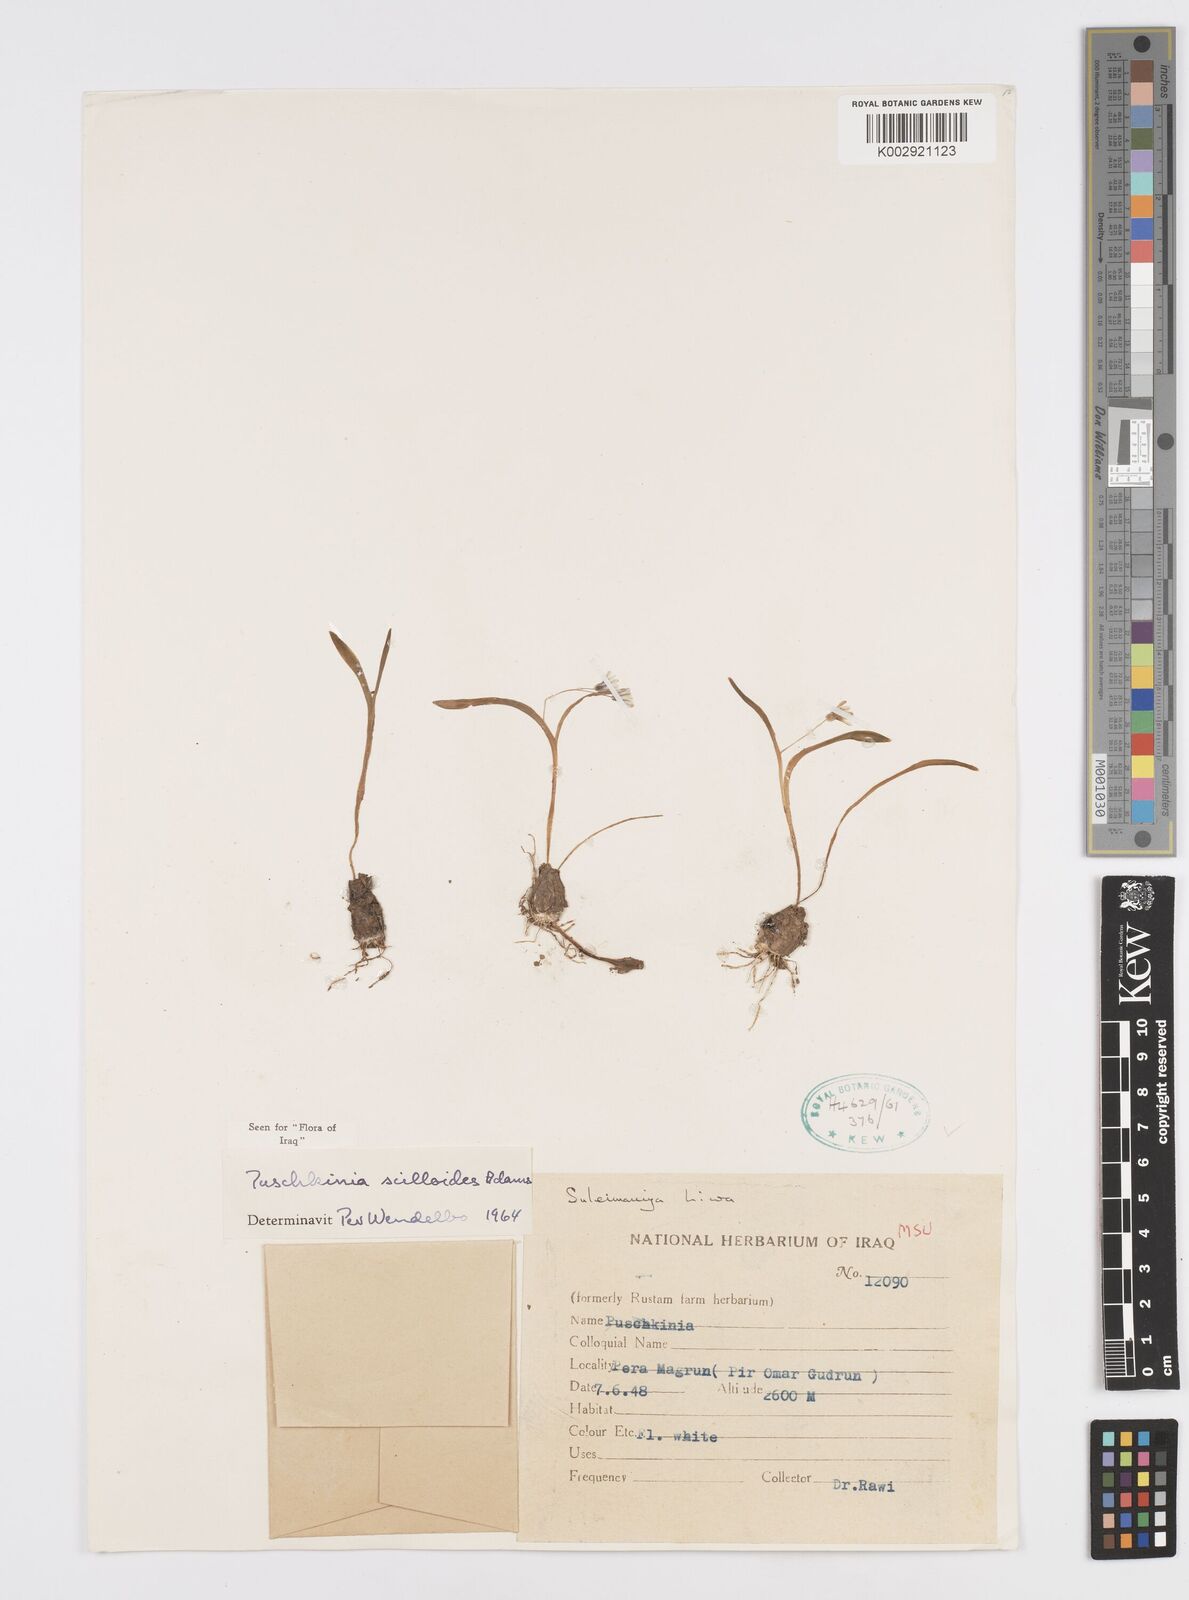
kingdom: Plantae
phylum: Tracheophyta
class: Liliopsida
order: Asparagales
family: Asparagaceae
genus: Puschkinia
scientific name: Puschkinia scilloides
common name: Striped squill
